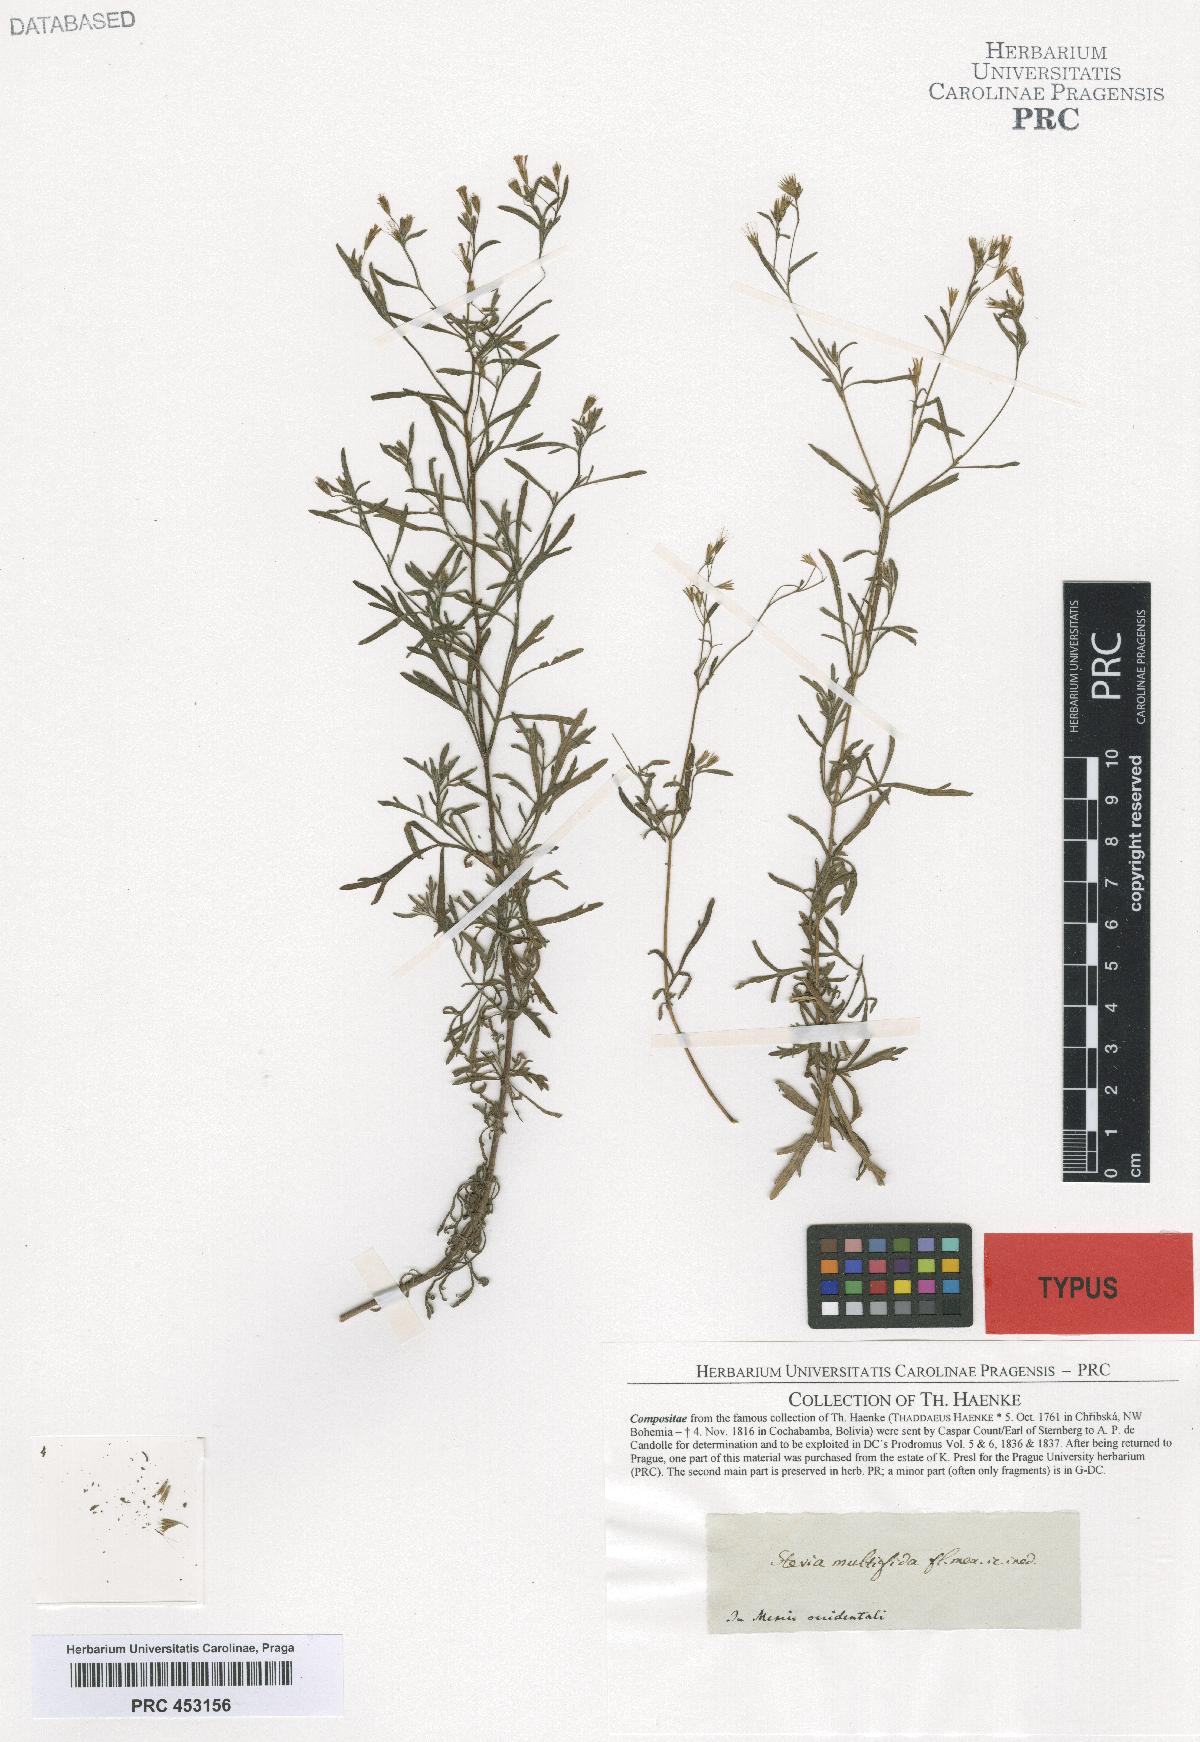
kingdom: Plantae
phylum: Tracheophyta
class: Magnoliopsida
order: Asterales
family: Asteraceae
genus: Stevia
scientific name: Stevia trifida
